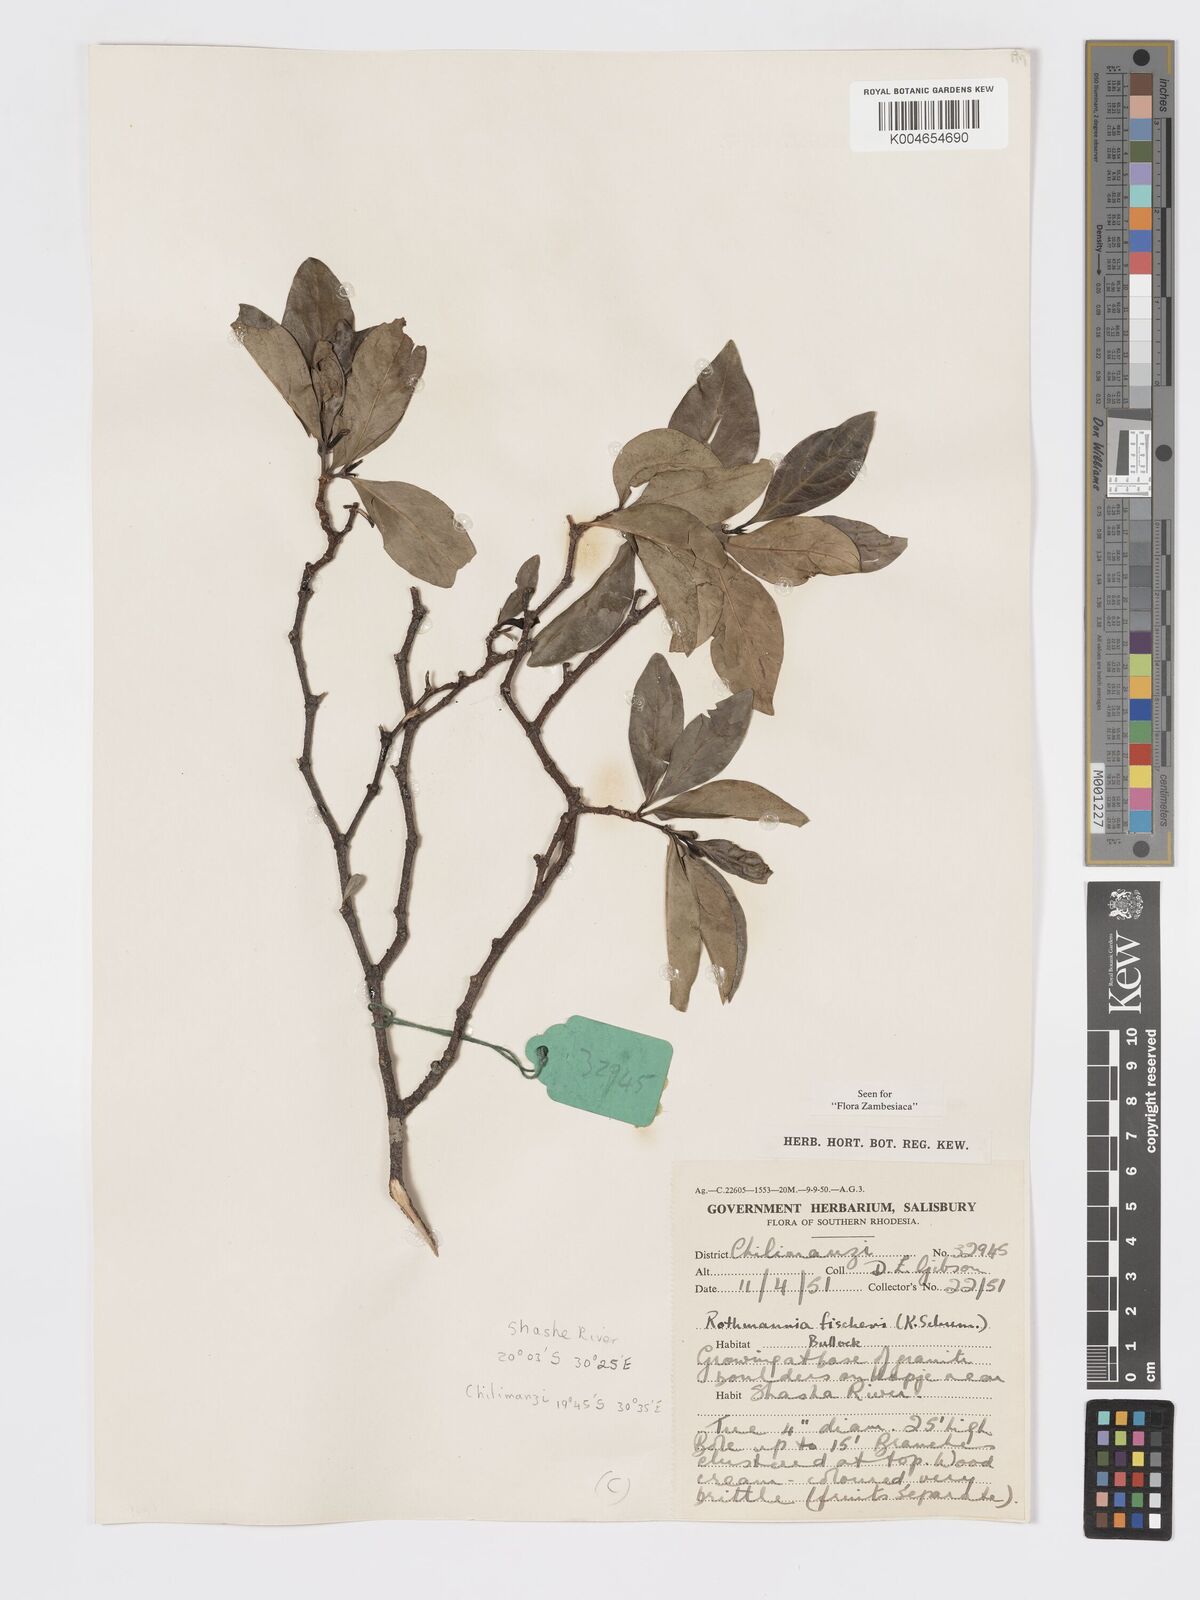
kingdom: Plantae
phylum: Tracheophyta
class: Magnoliopsida
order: Gentianales
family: Rubiaceae
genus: Rothmannia
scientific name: Rothmannia fischeri
